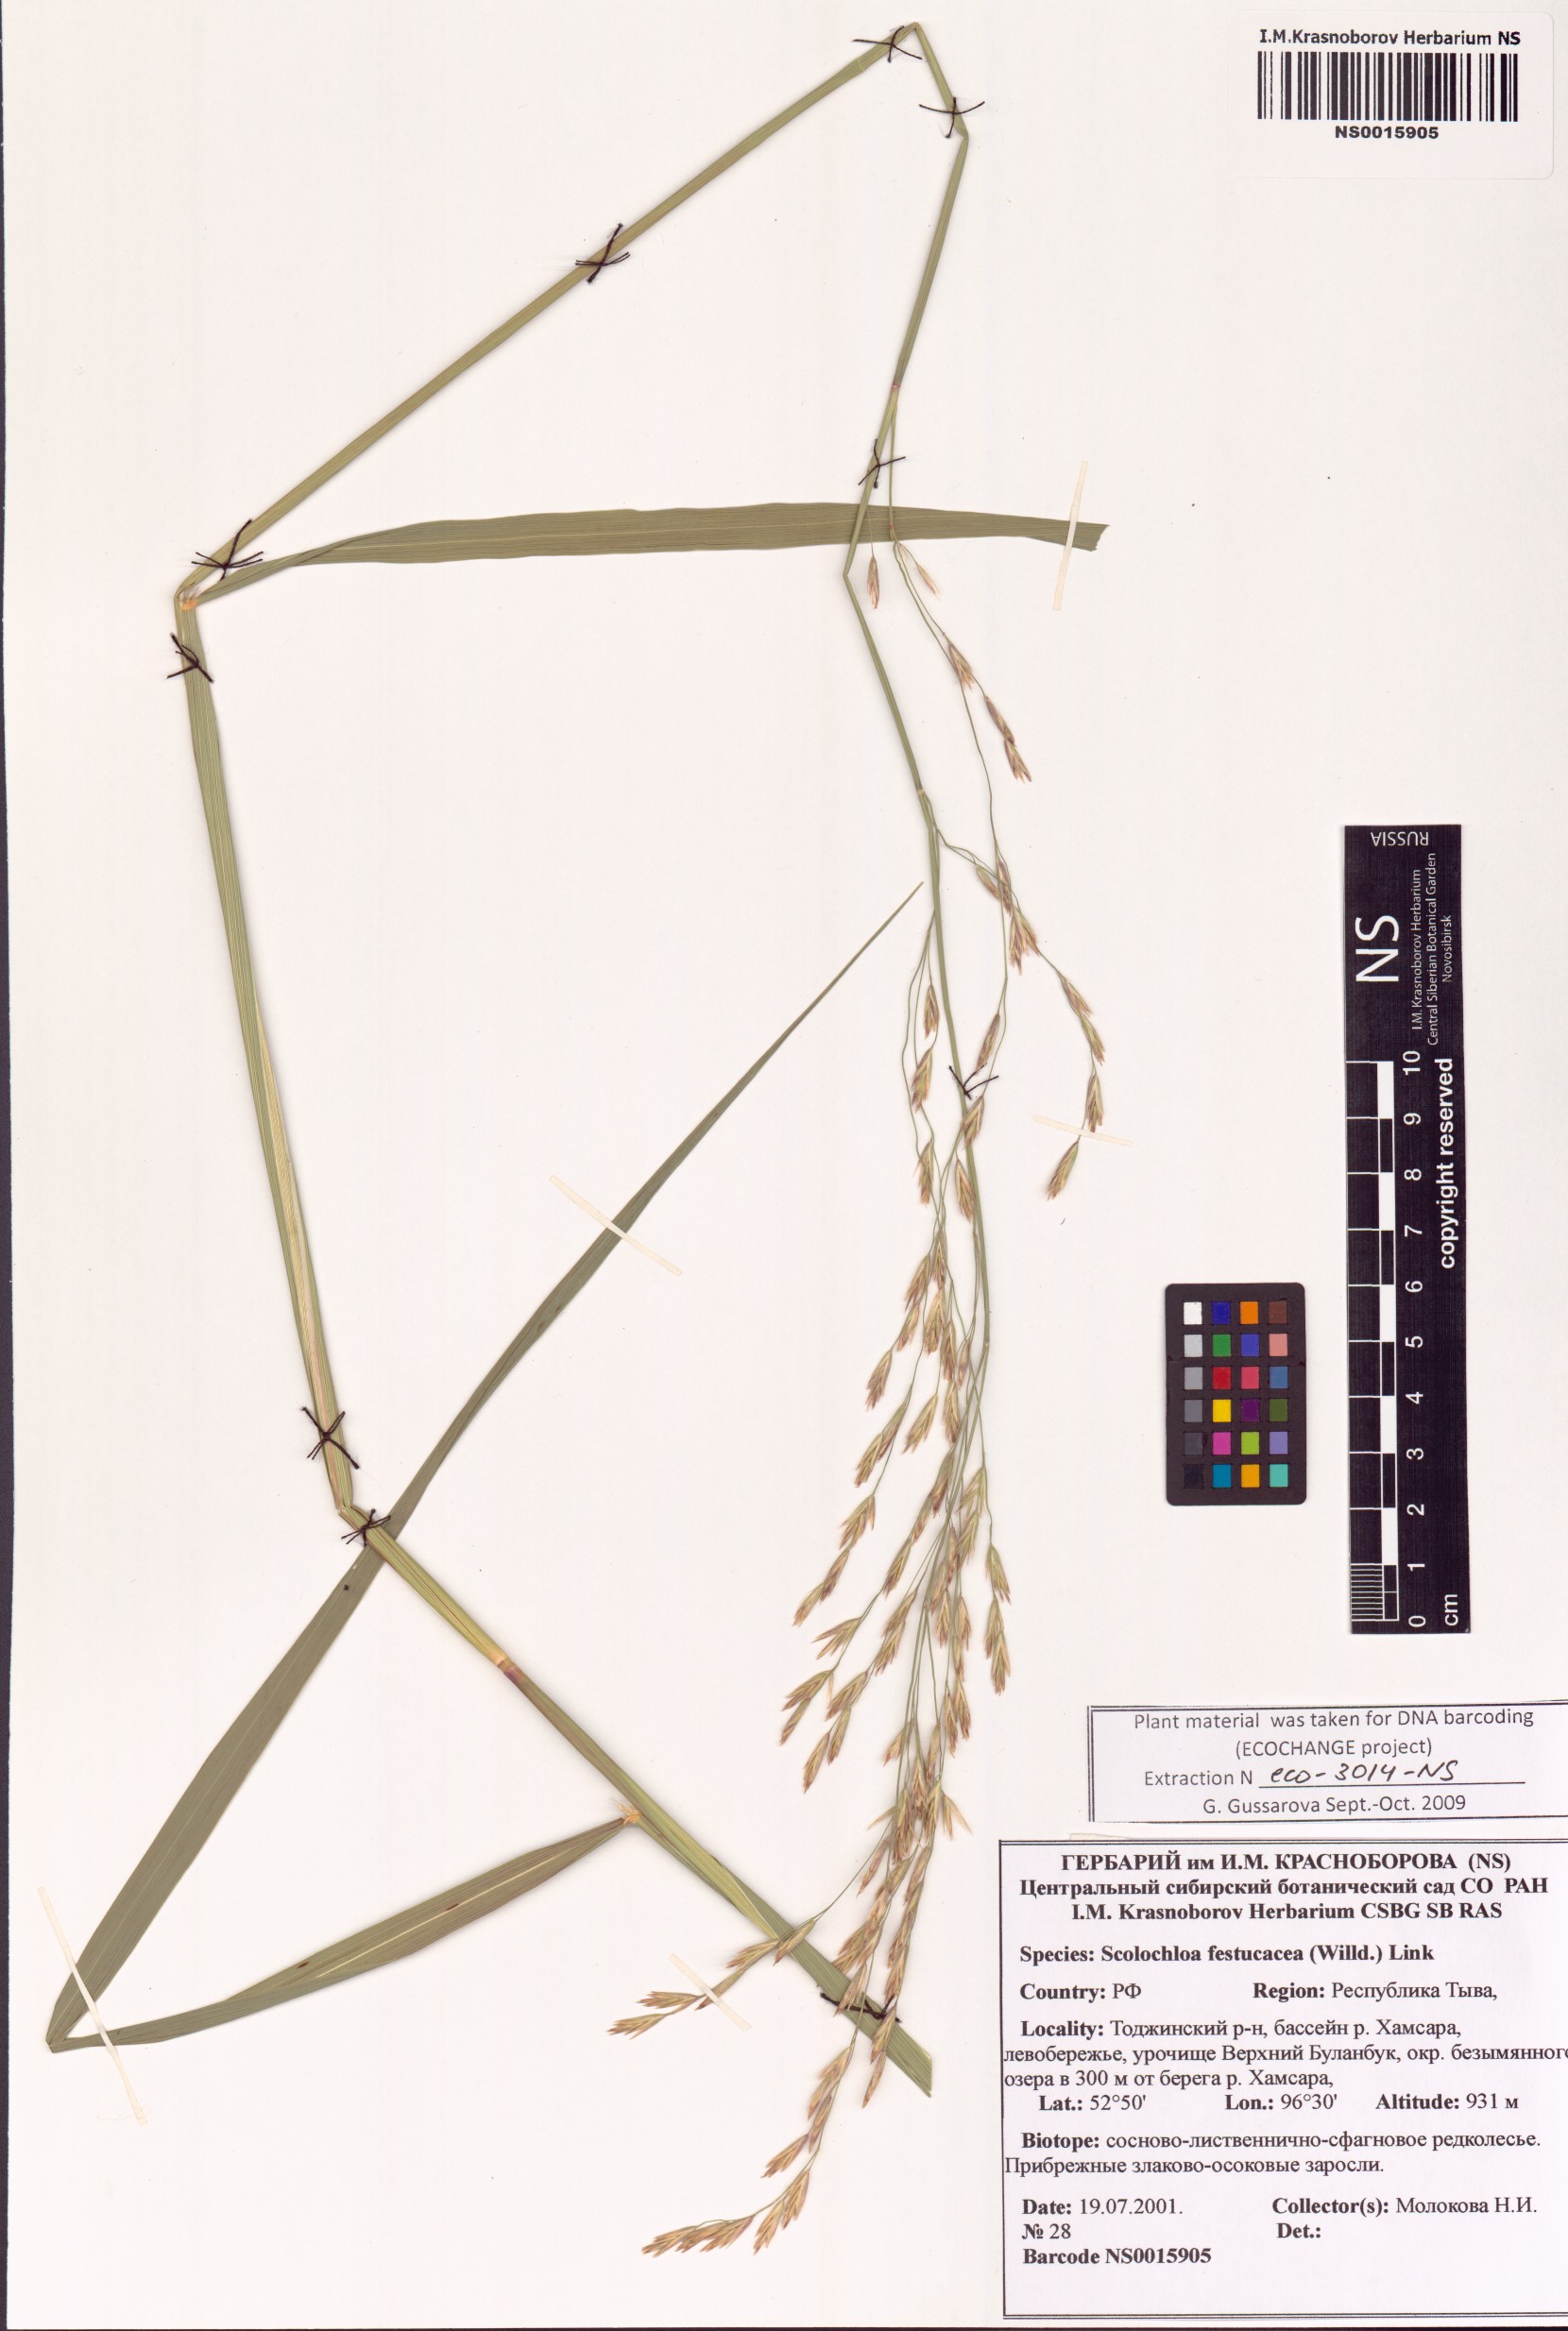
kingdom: Plantae
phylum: Tracheophyta
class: Liliopsida
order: Poales
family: Poaceae
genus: Scolochloa
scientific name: Scolochloa festucacea
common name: Common rivergrass
